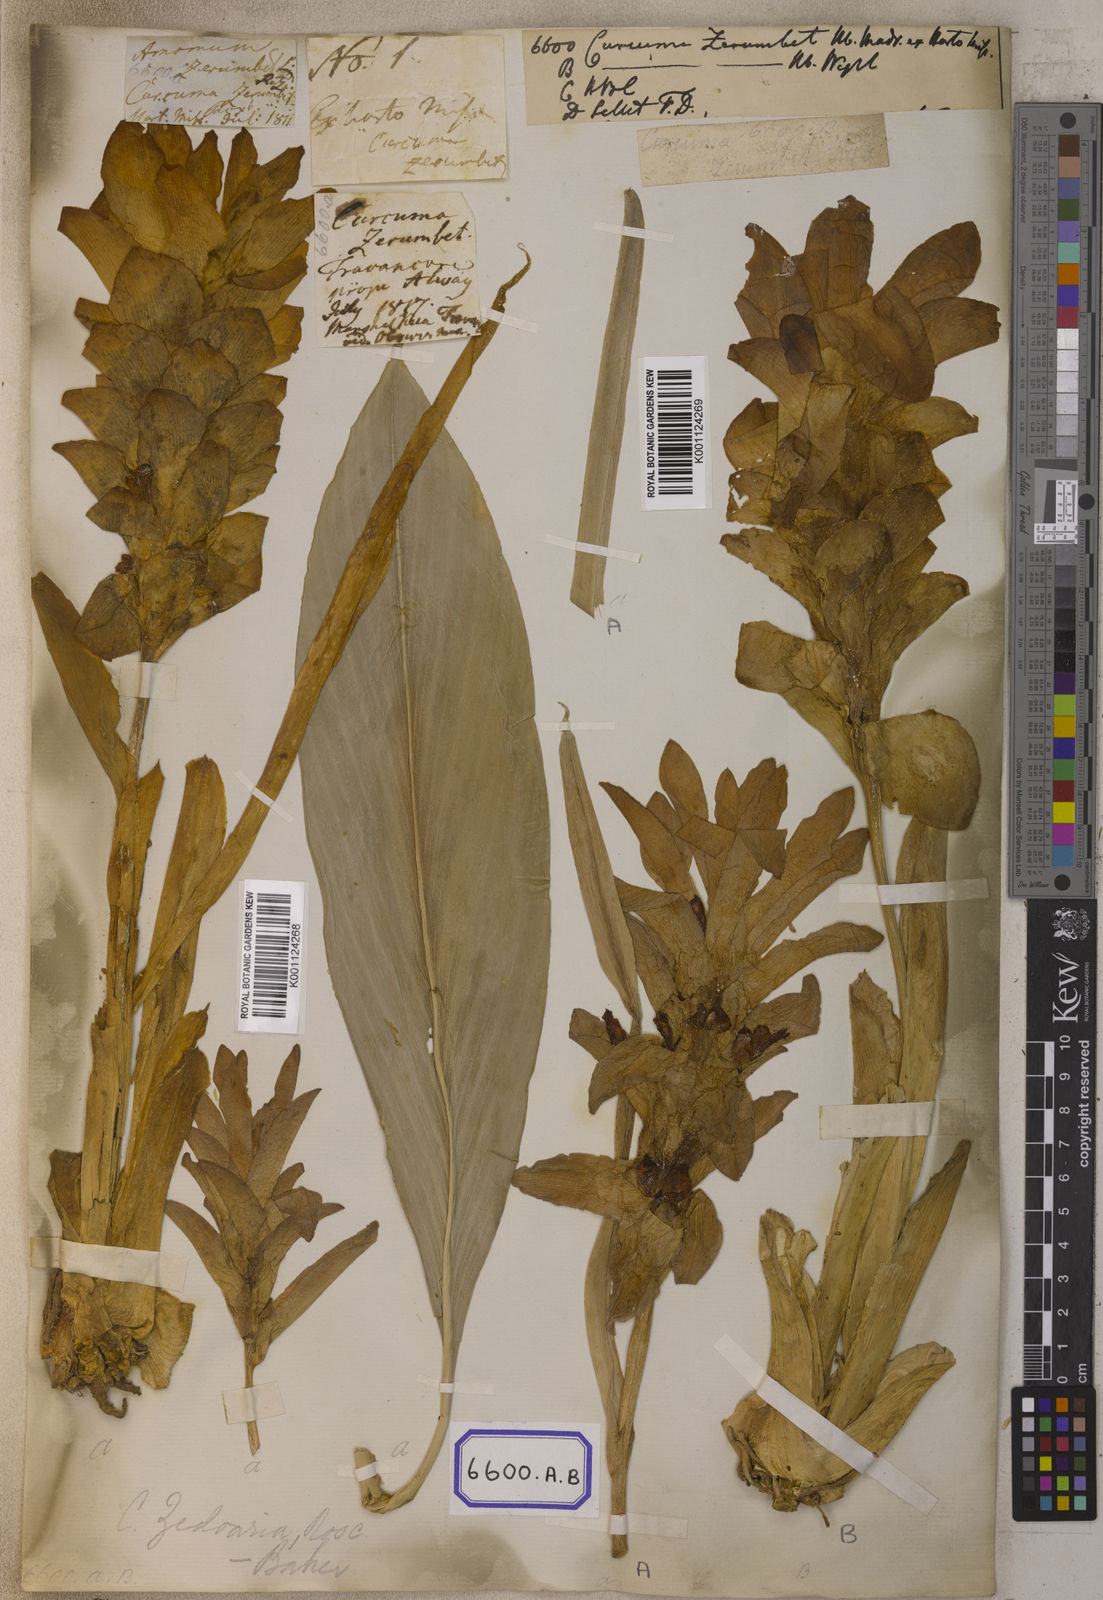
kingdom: Plantae
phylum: Tracheophyta
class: Liliopsida
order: Zingiberales
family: Zingiberaceae
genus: Curcuma
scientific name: Curcuma euchroma
